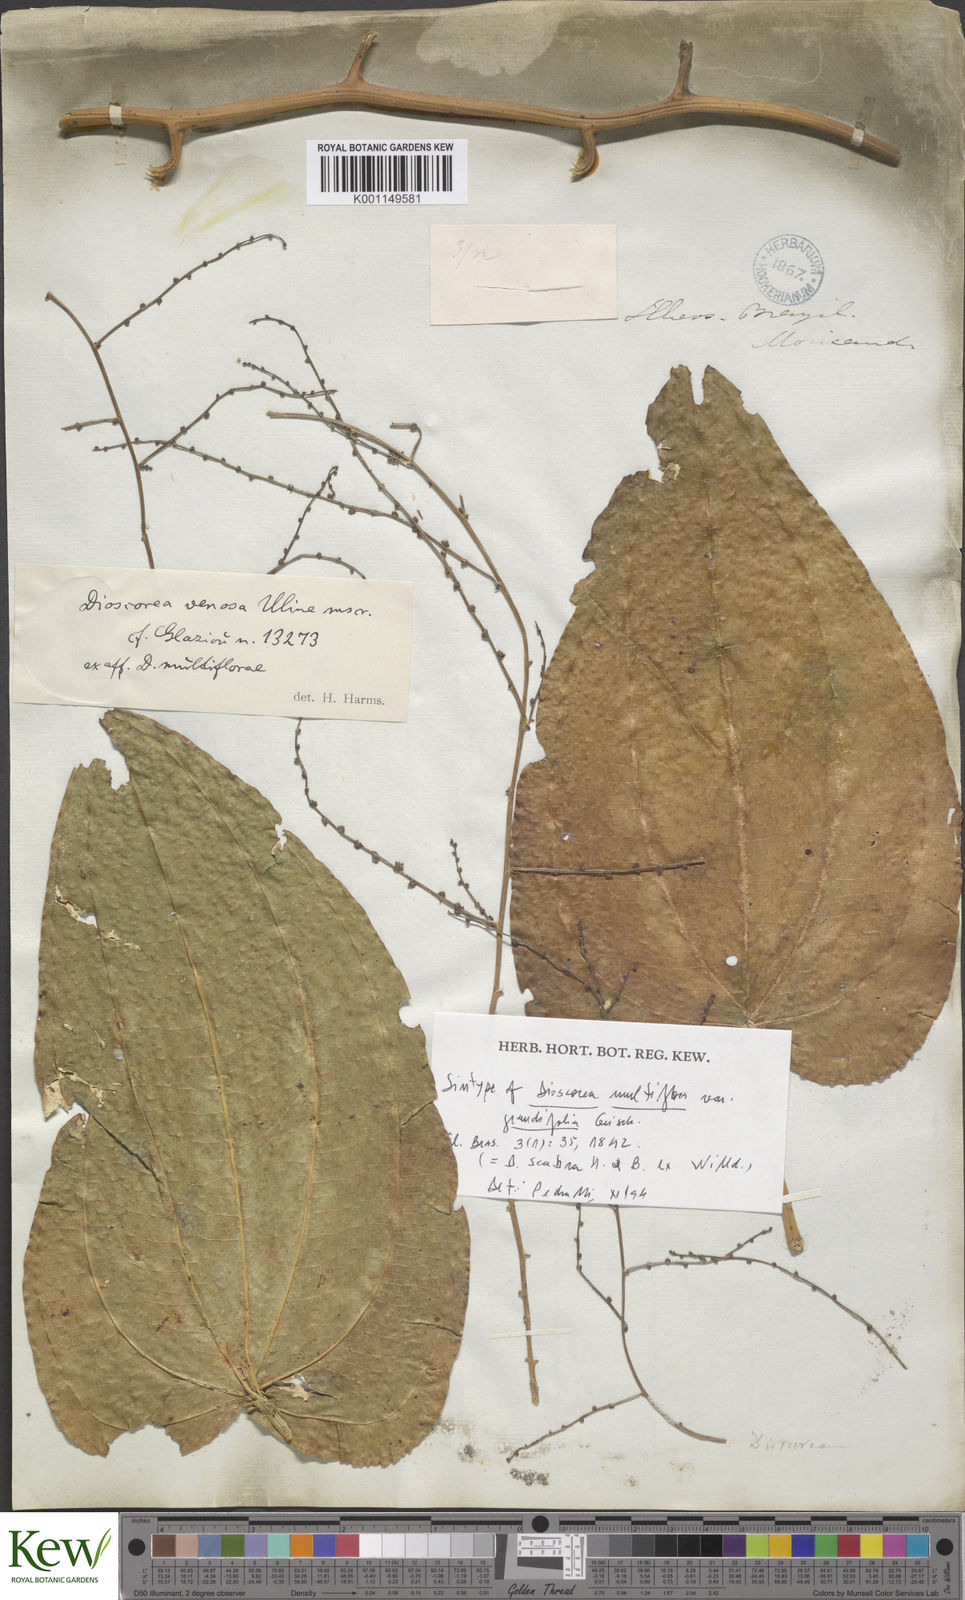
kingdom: Plantae
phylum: Tracheophyta
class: Liliopsida
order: Dioscoreales
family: Dioscoreaceae
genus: Dioscorea
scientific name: Dioscorea fodinarum
